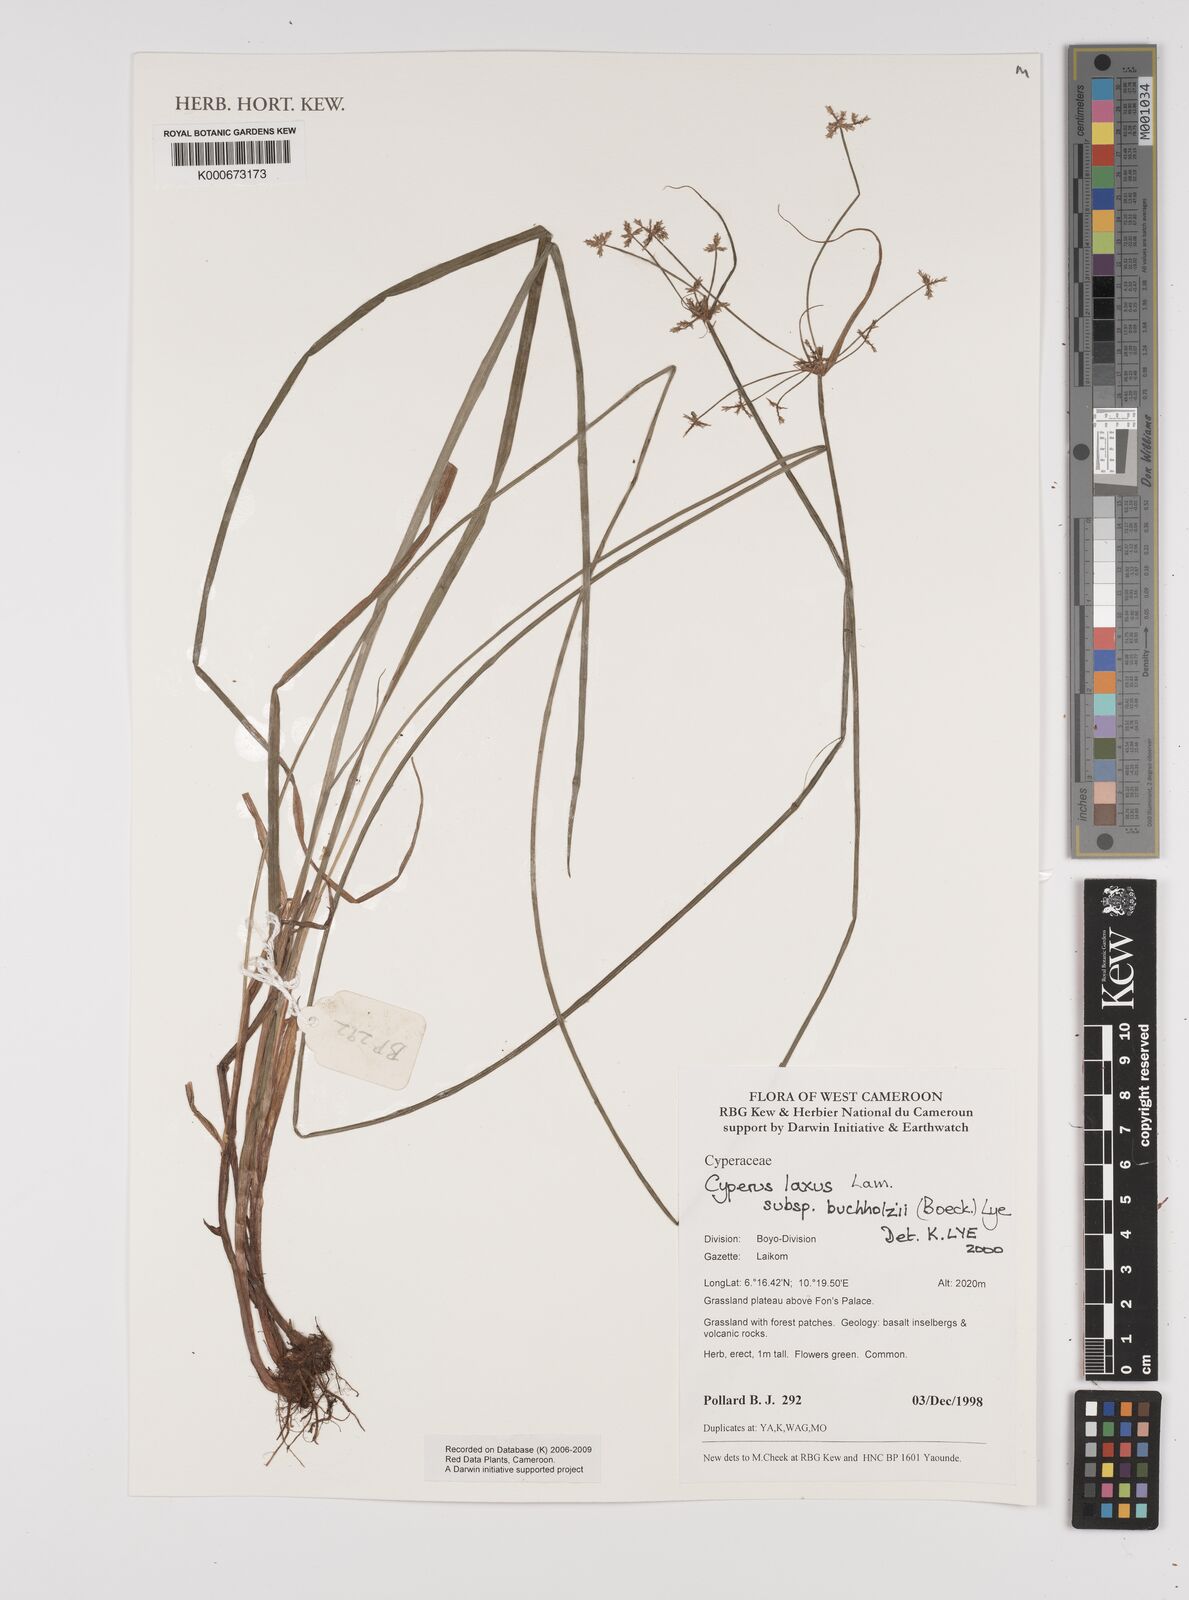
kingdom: Plantae
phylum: Tracheophyta
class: Liliopsida
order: Poales
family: Cyperaceae
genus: Cyperus
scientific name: Cyperus buchholzii
